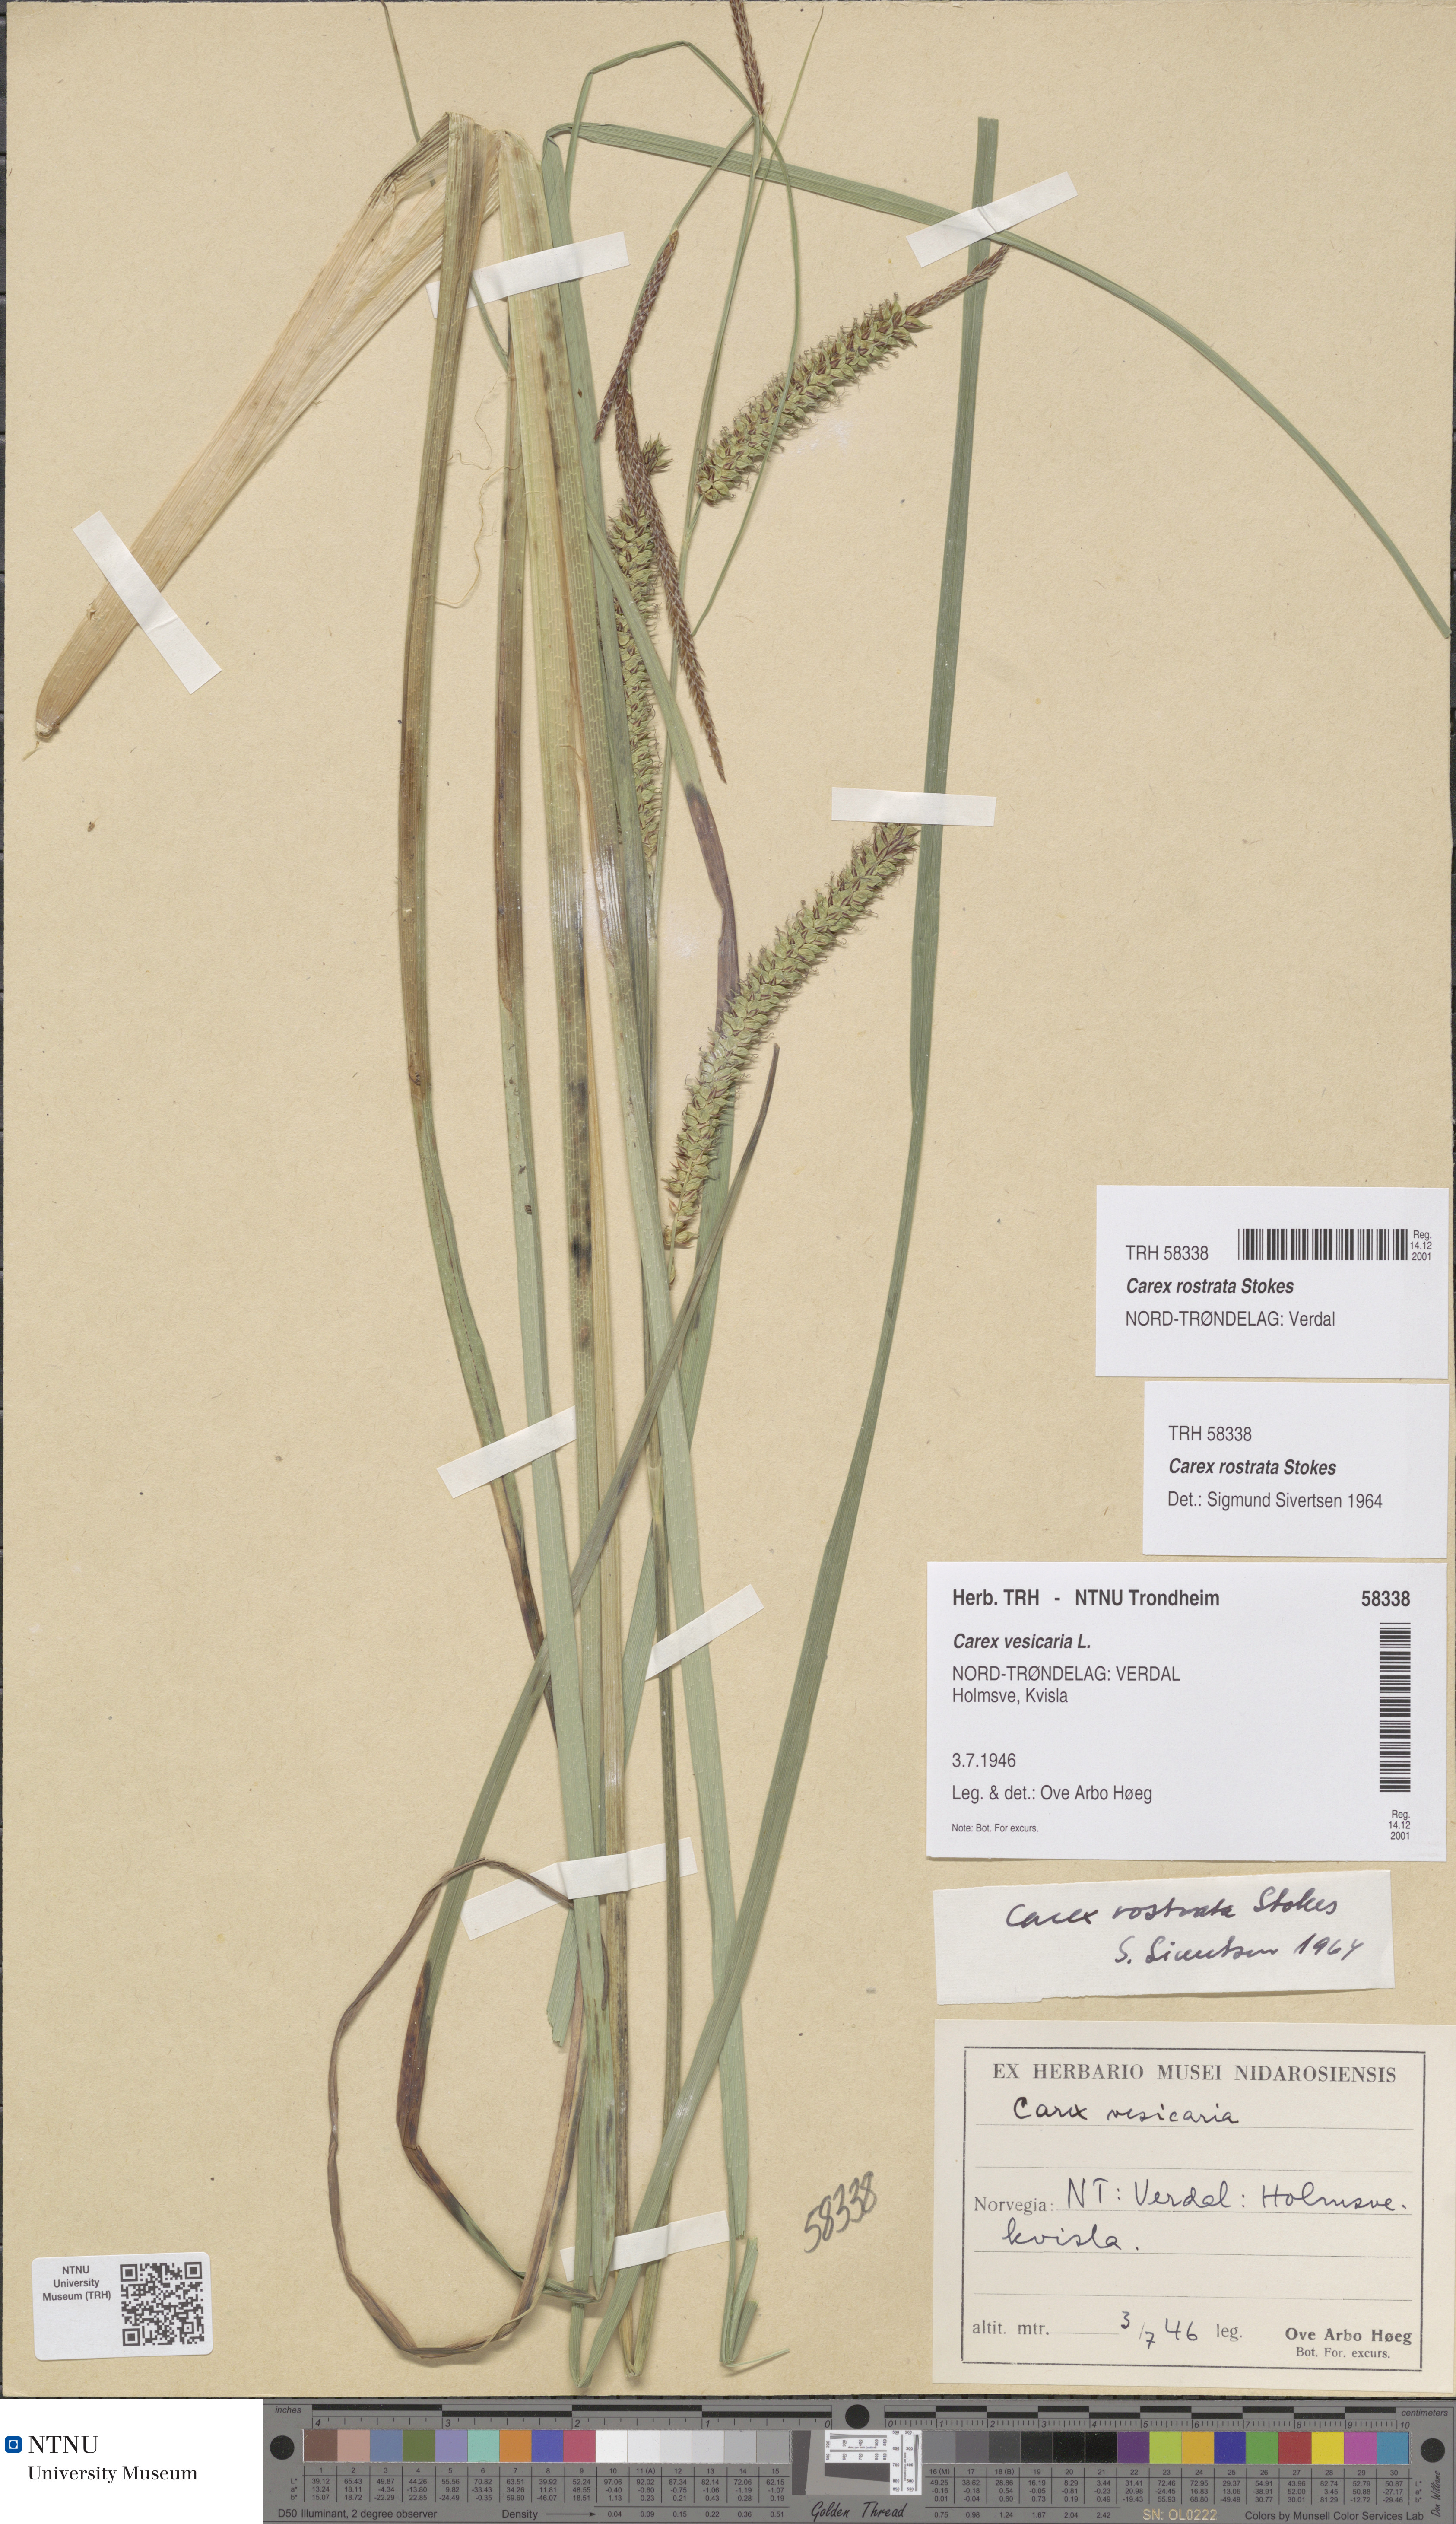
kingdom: Plantae
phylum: Tracheophyta
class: Liliopsida
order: Poales
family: Cyperaceae
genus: Carex
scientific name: Carex rostrata
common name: Bottle sedge
